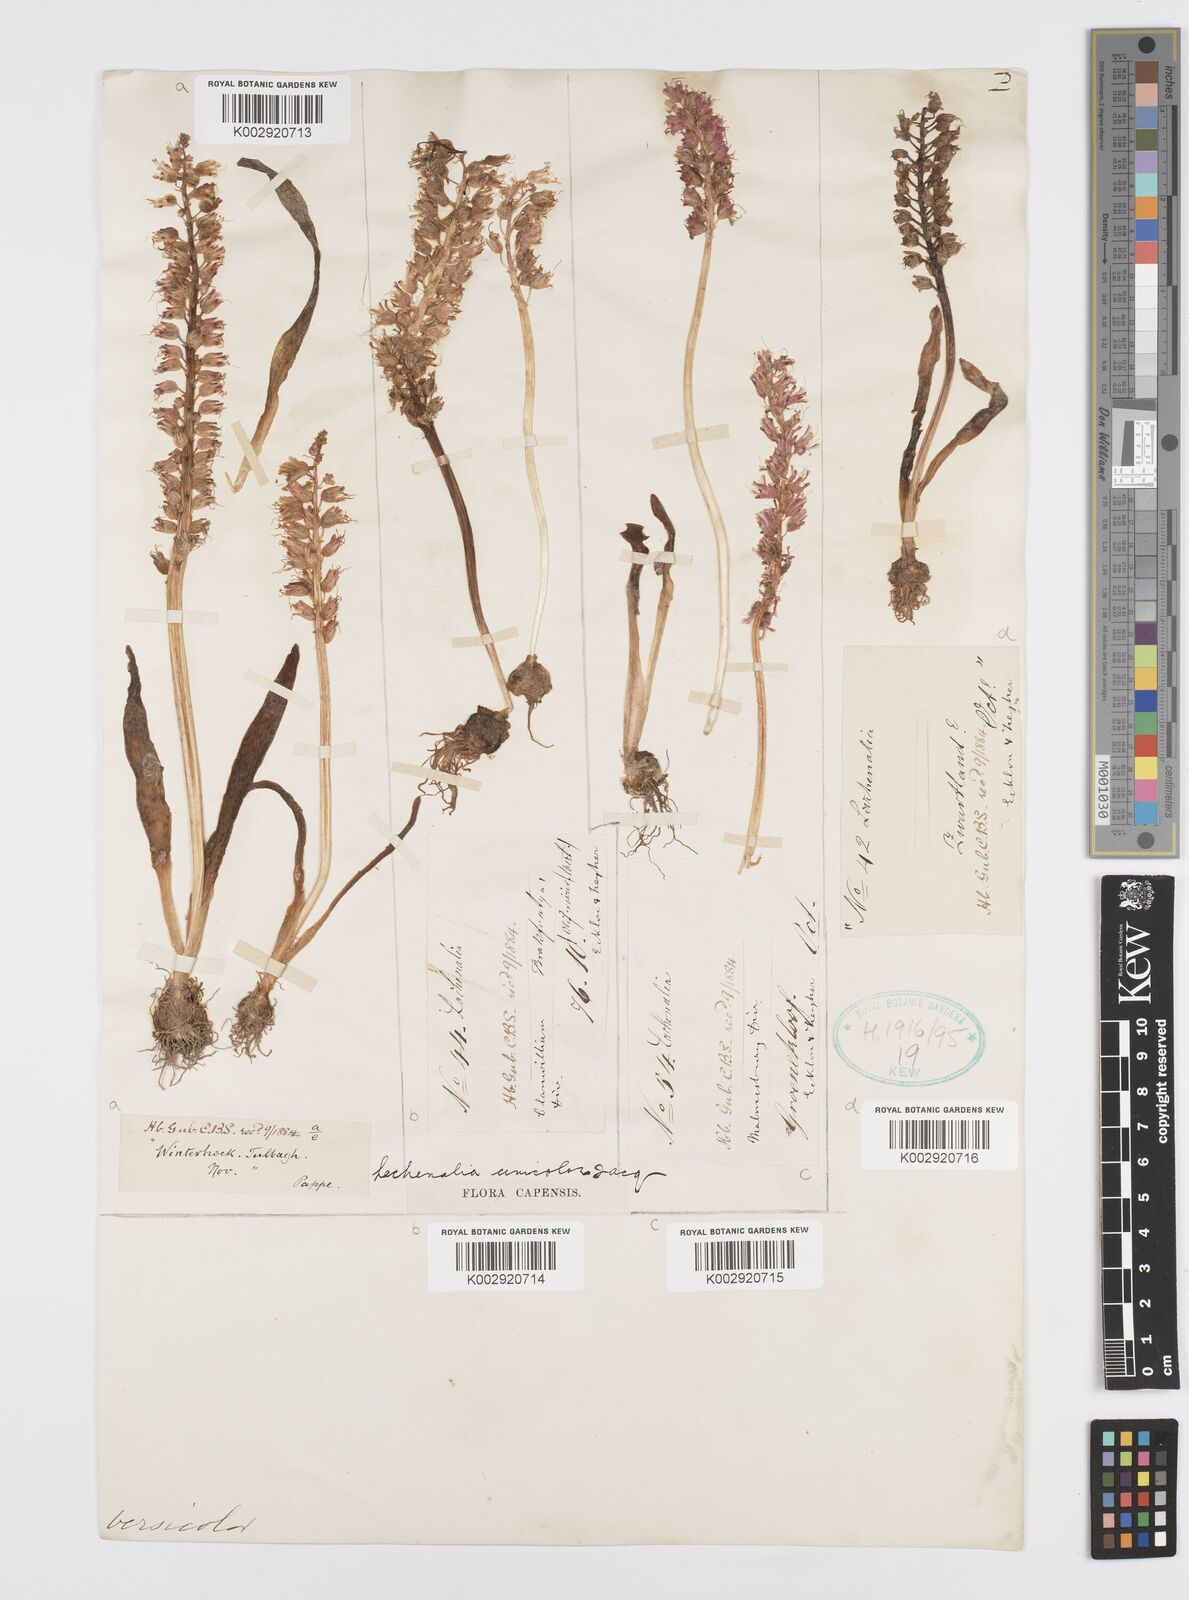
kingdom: Plantae
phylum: Tracheophyta
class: Liliopsida
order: Asparagales
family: Asparagaceae
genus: Lachenalia
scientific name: Lachenalia pallida
